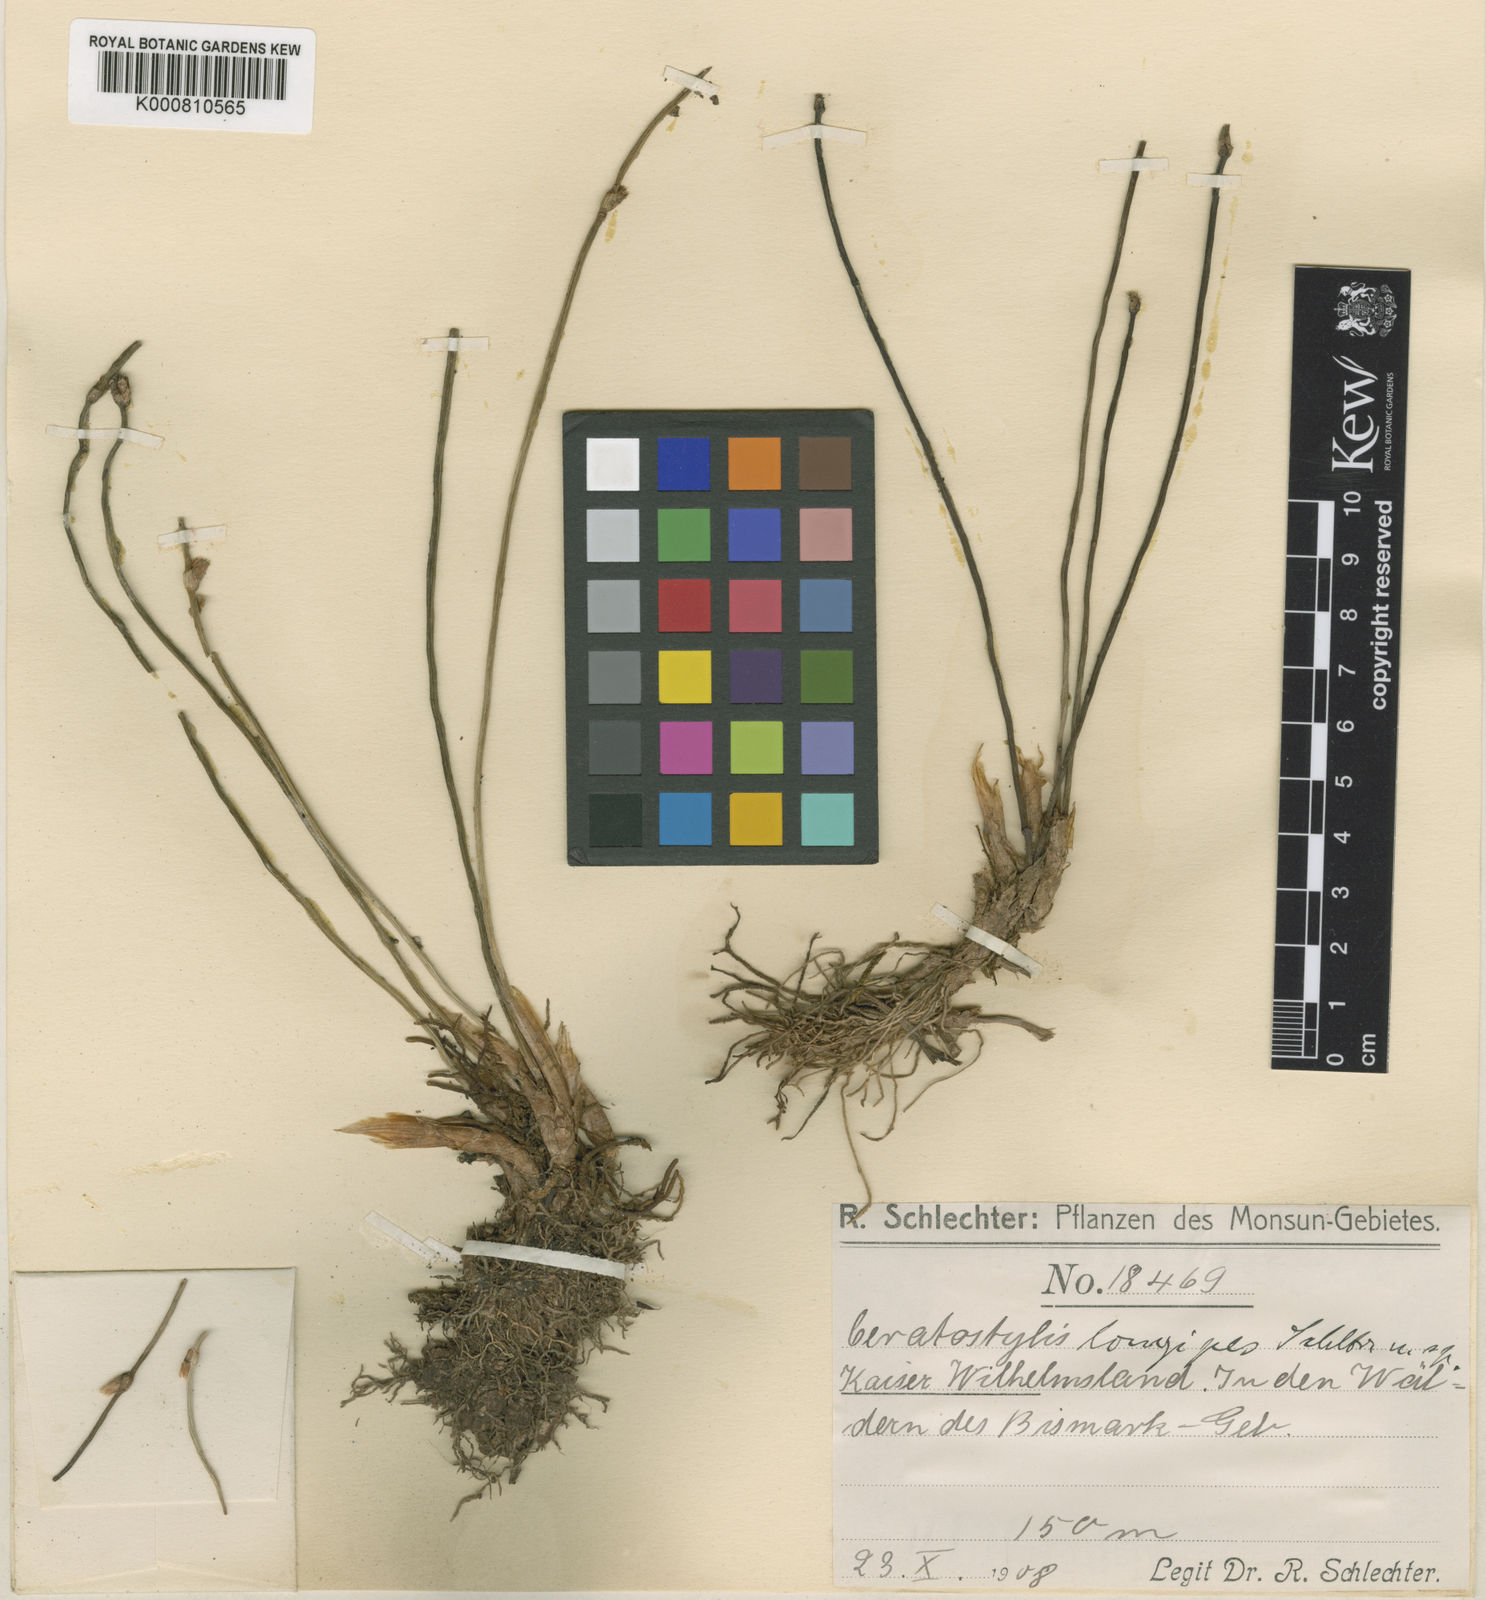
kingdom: Plantae
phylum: Tracheophyta
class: Liliopsida
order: Asparagales
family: Orchidaceae
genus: Ceratostylis
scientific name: Ceratostylis longipes
